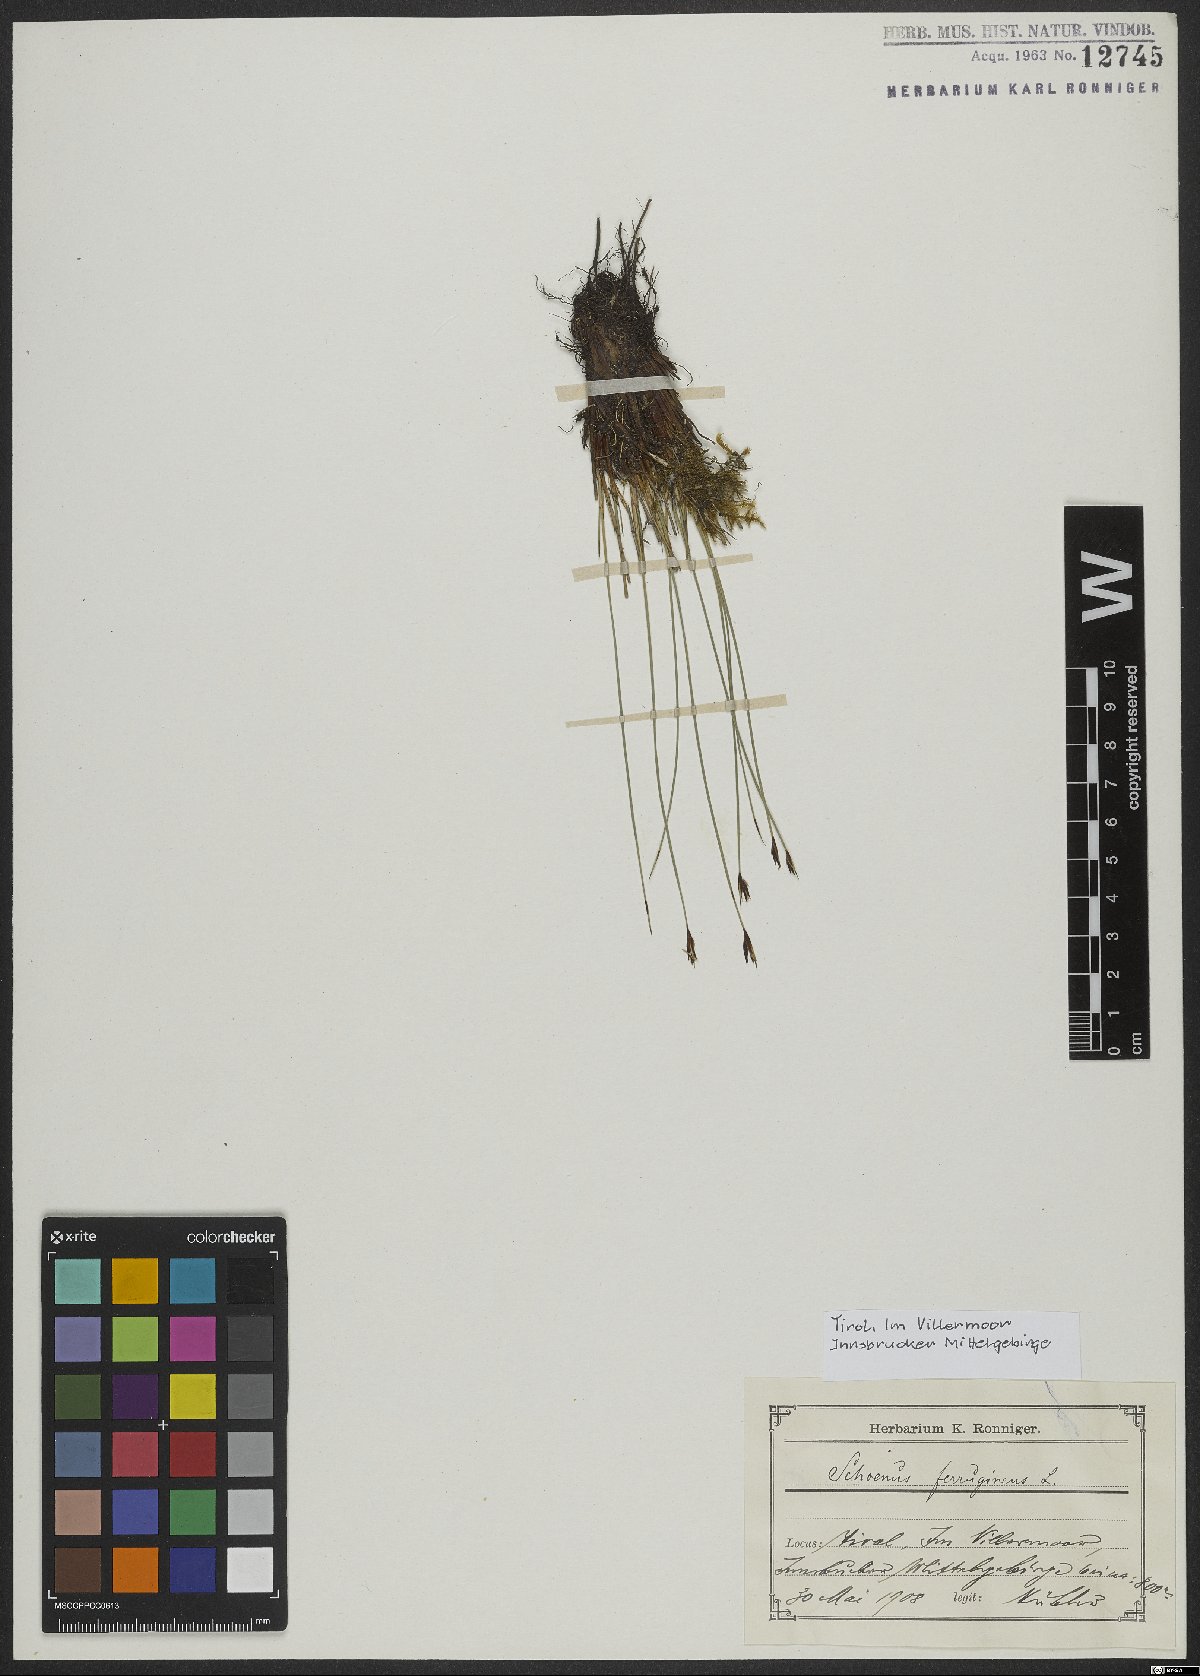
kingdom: Plantae
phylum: Tracheophyta
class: Liliopsida
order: Poales
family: Cyperaceae
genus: Schoenus
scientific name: Schoenus ferrugineus
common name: Brown bog-rush
